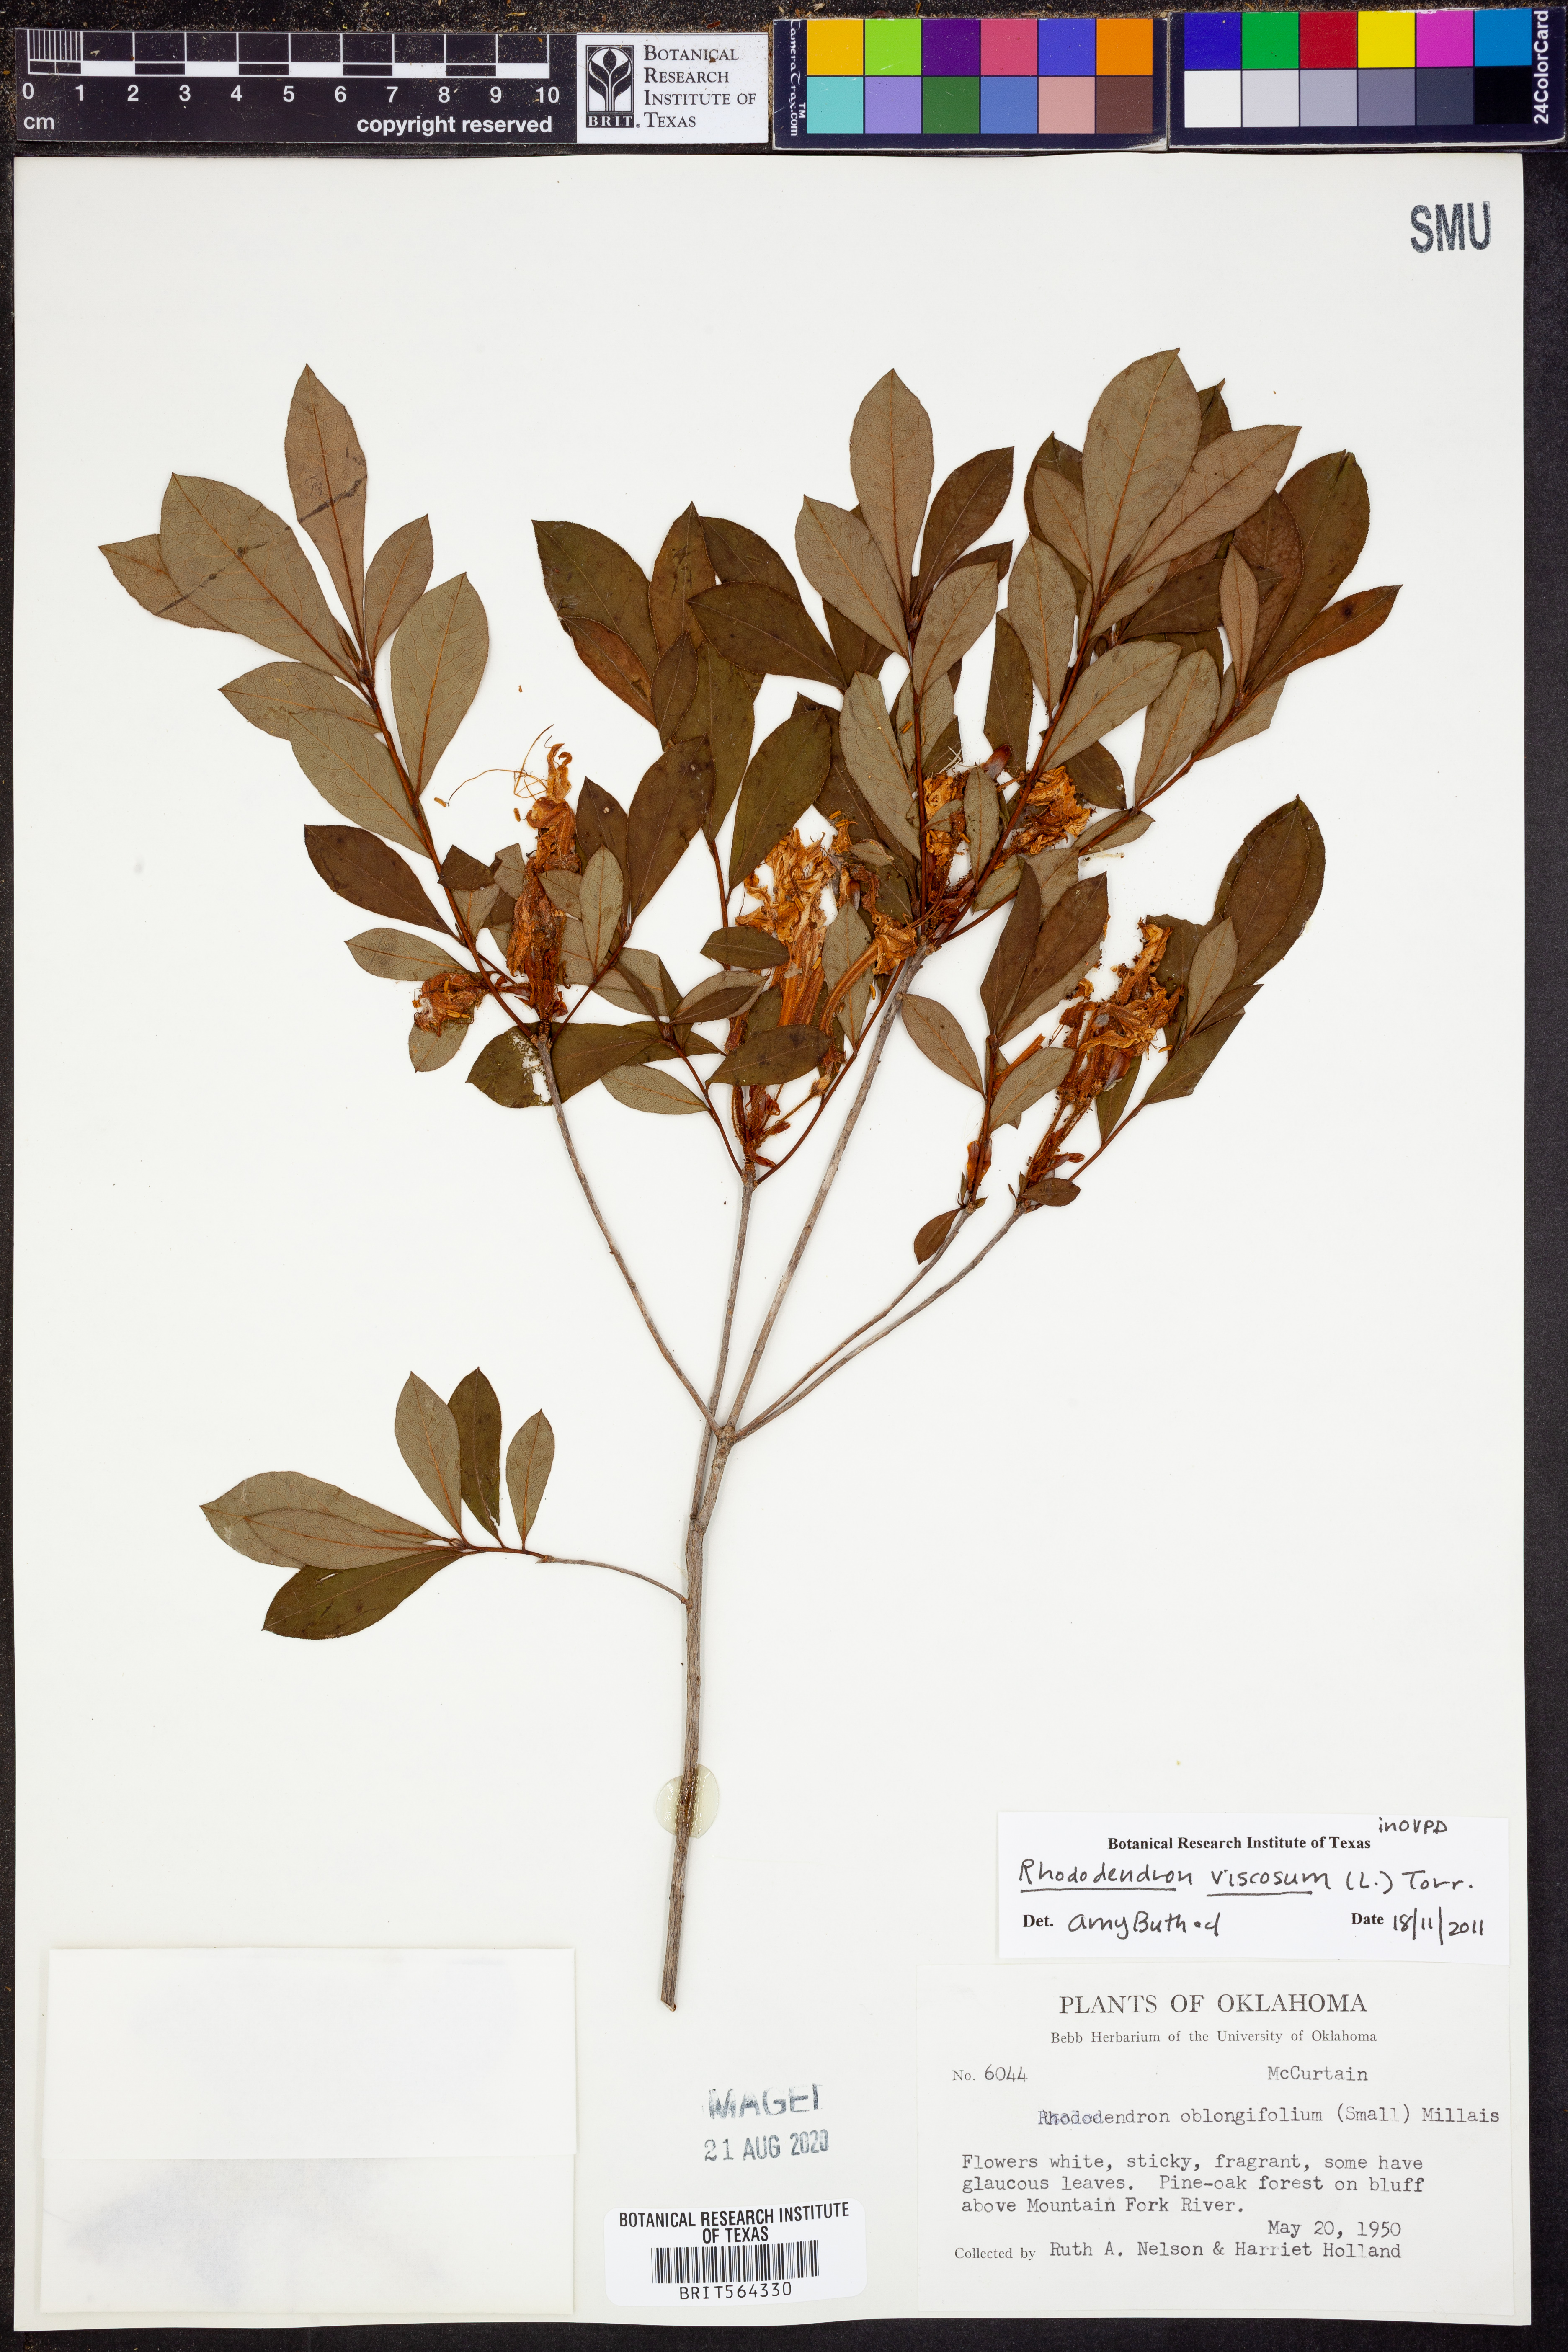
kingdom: Plantae
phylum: Tracheophyta
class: Magnoliopsida
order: Ericales
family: Ericaceae
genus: Rhododendron
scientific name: Rhododendron viscosum
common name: Clammy azalea
